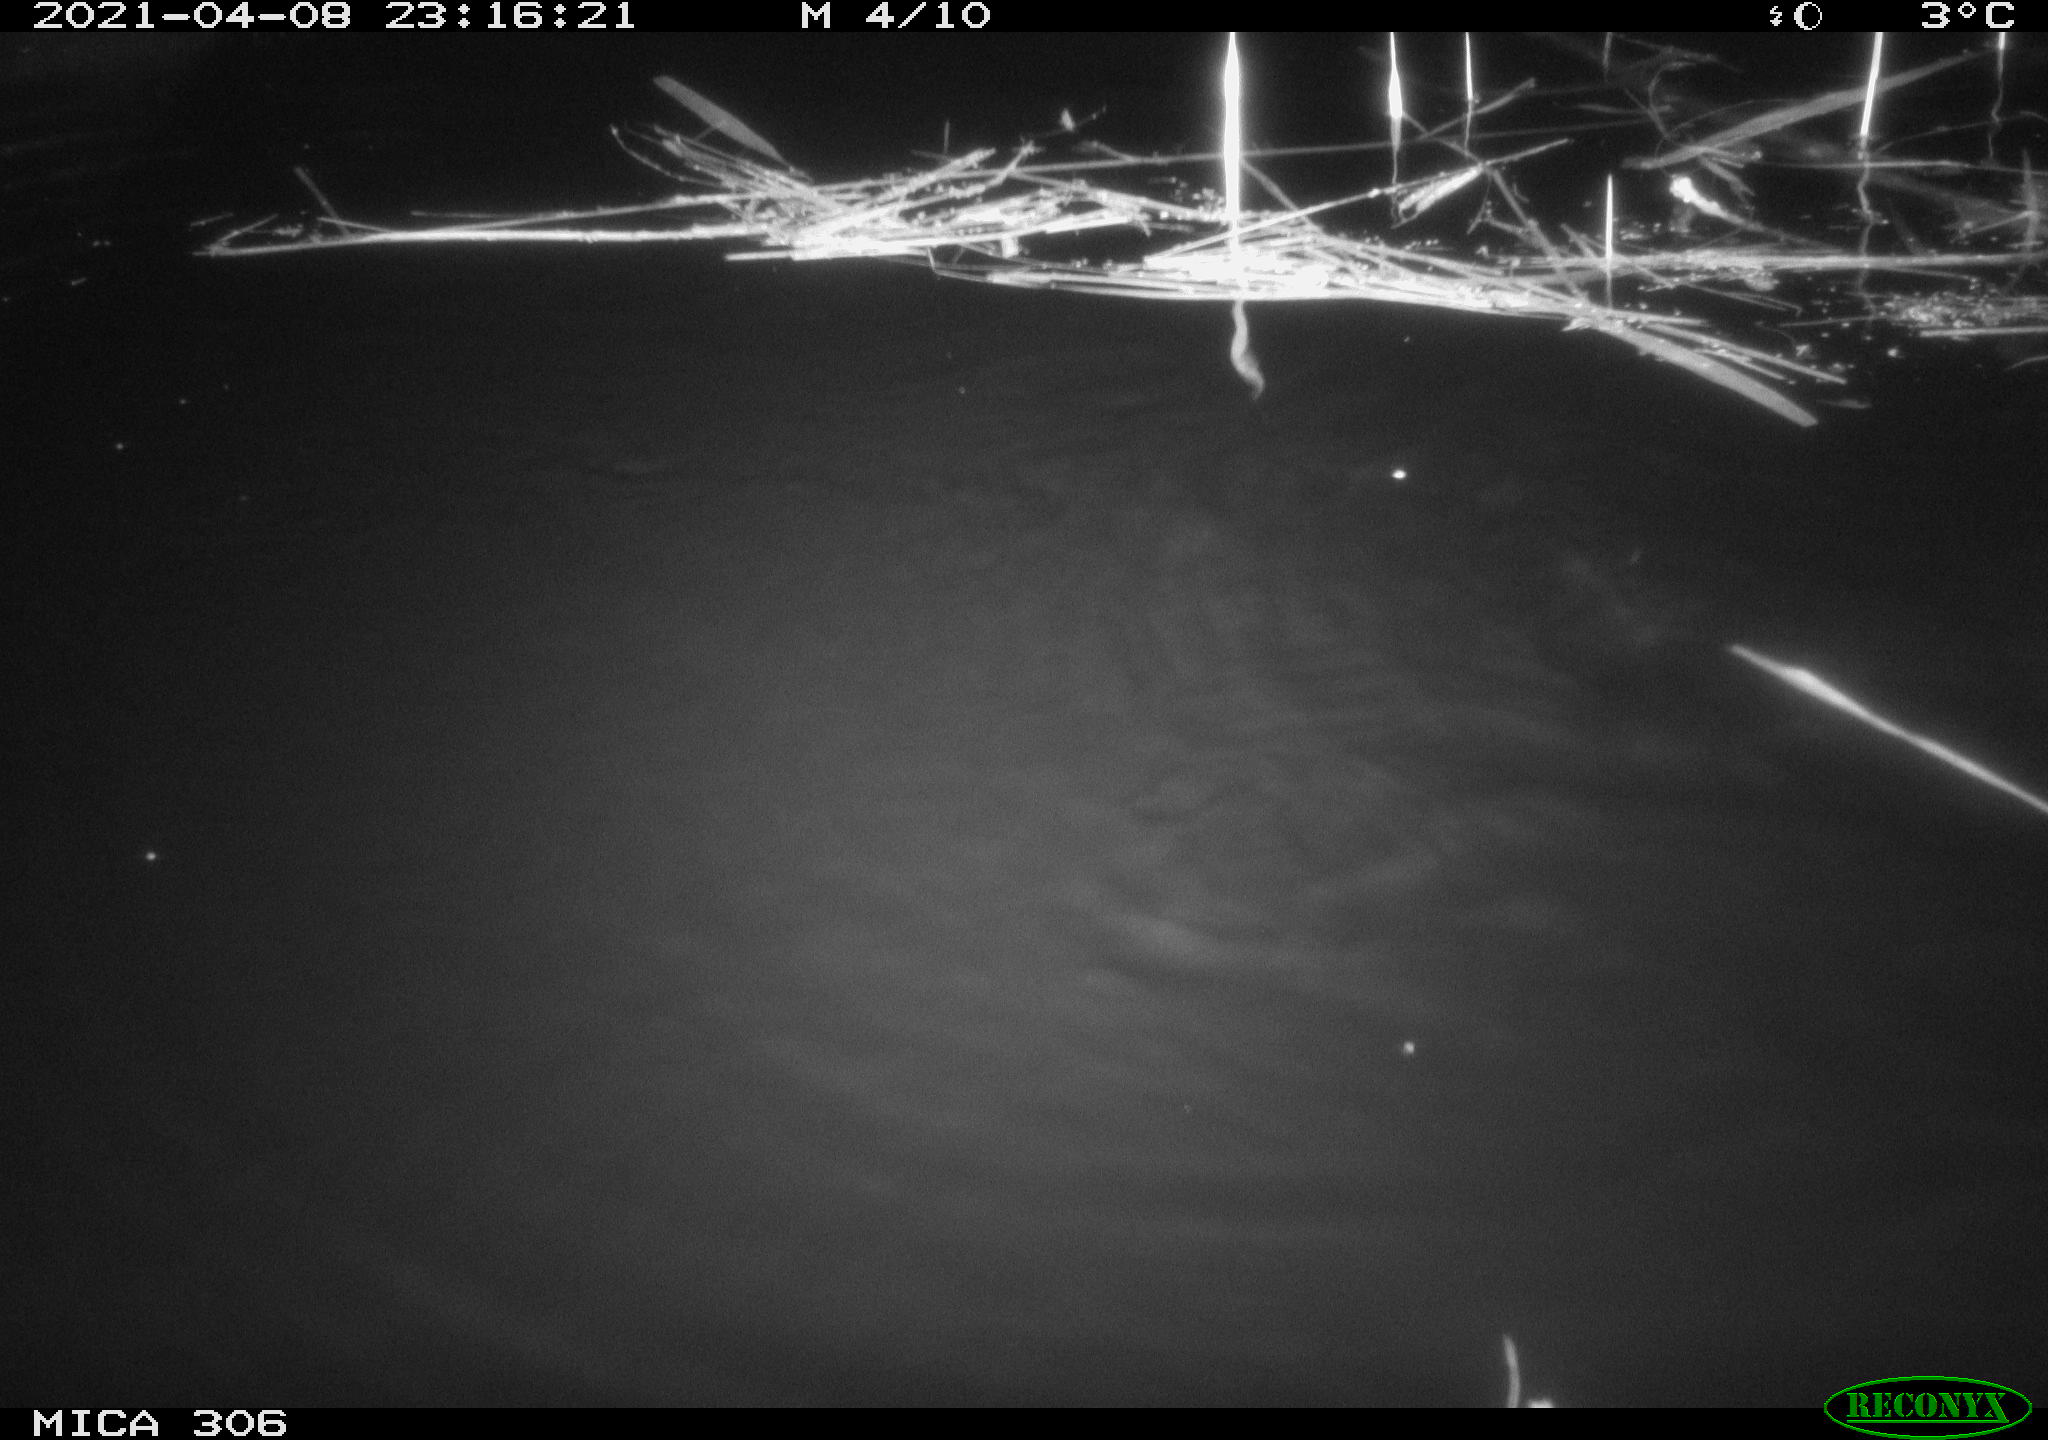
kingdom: Animalia
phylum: Chordata
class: Mammalia
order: Rodentia
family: Cricetidae
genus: Ondatra
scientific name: Ondatra zibethicus
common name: Muskrat
